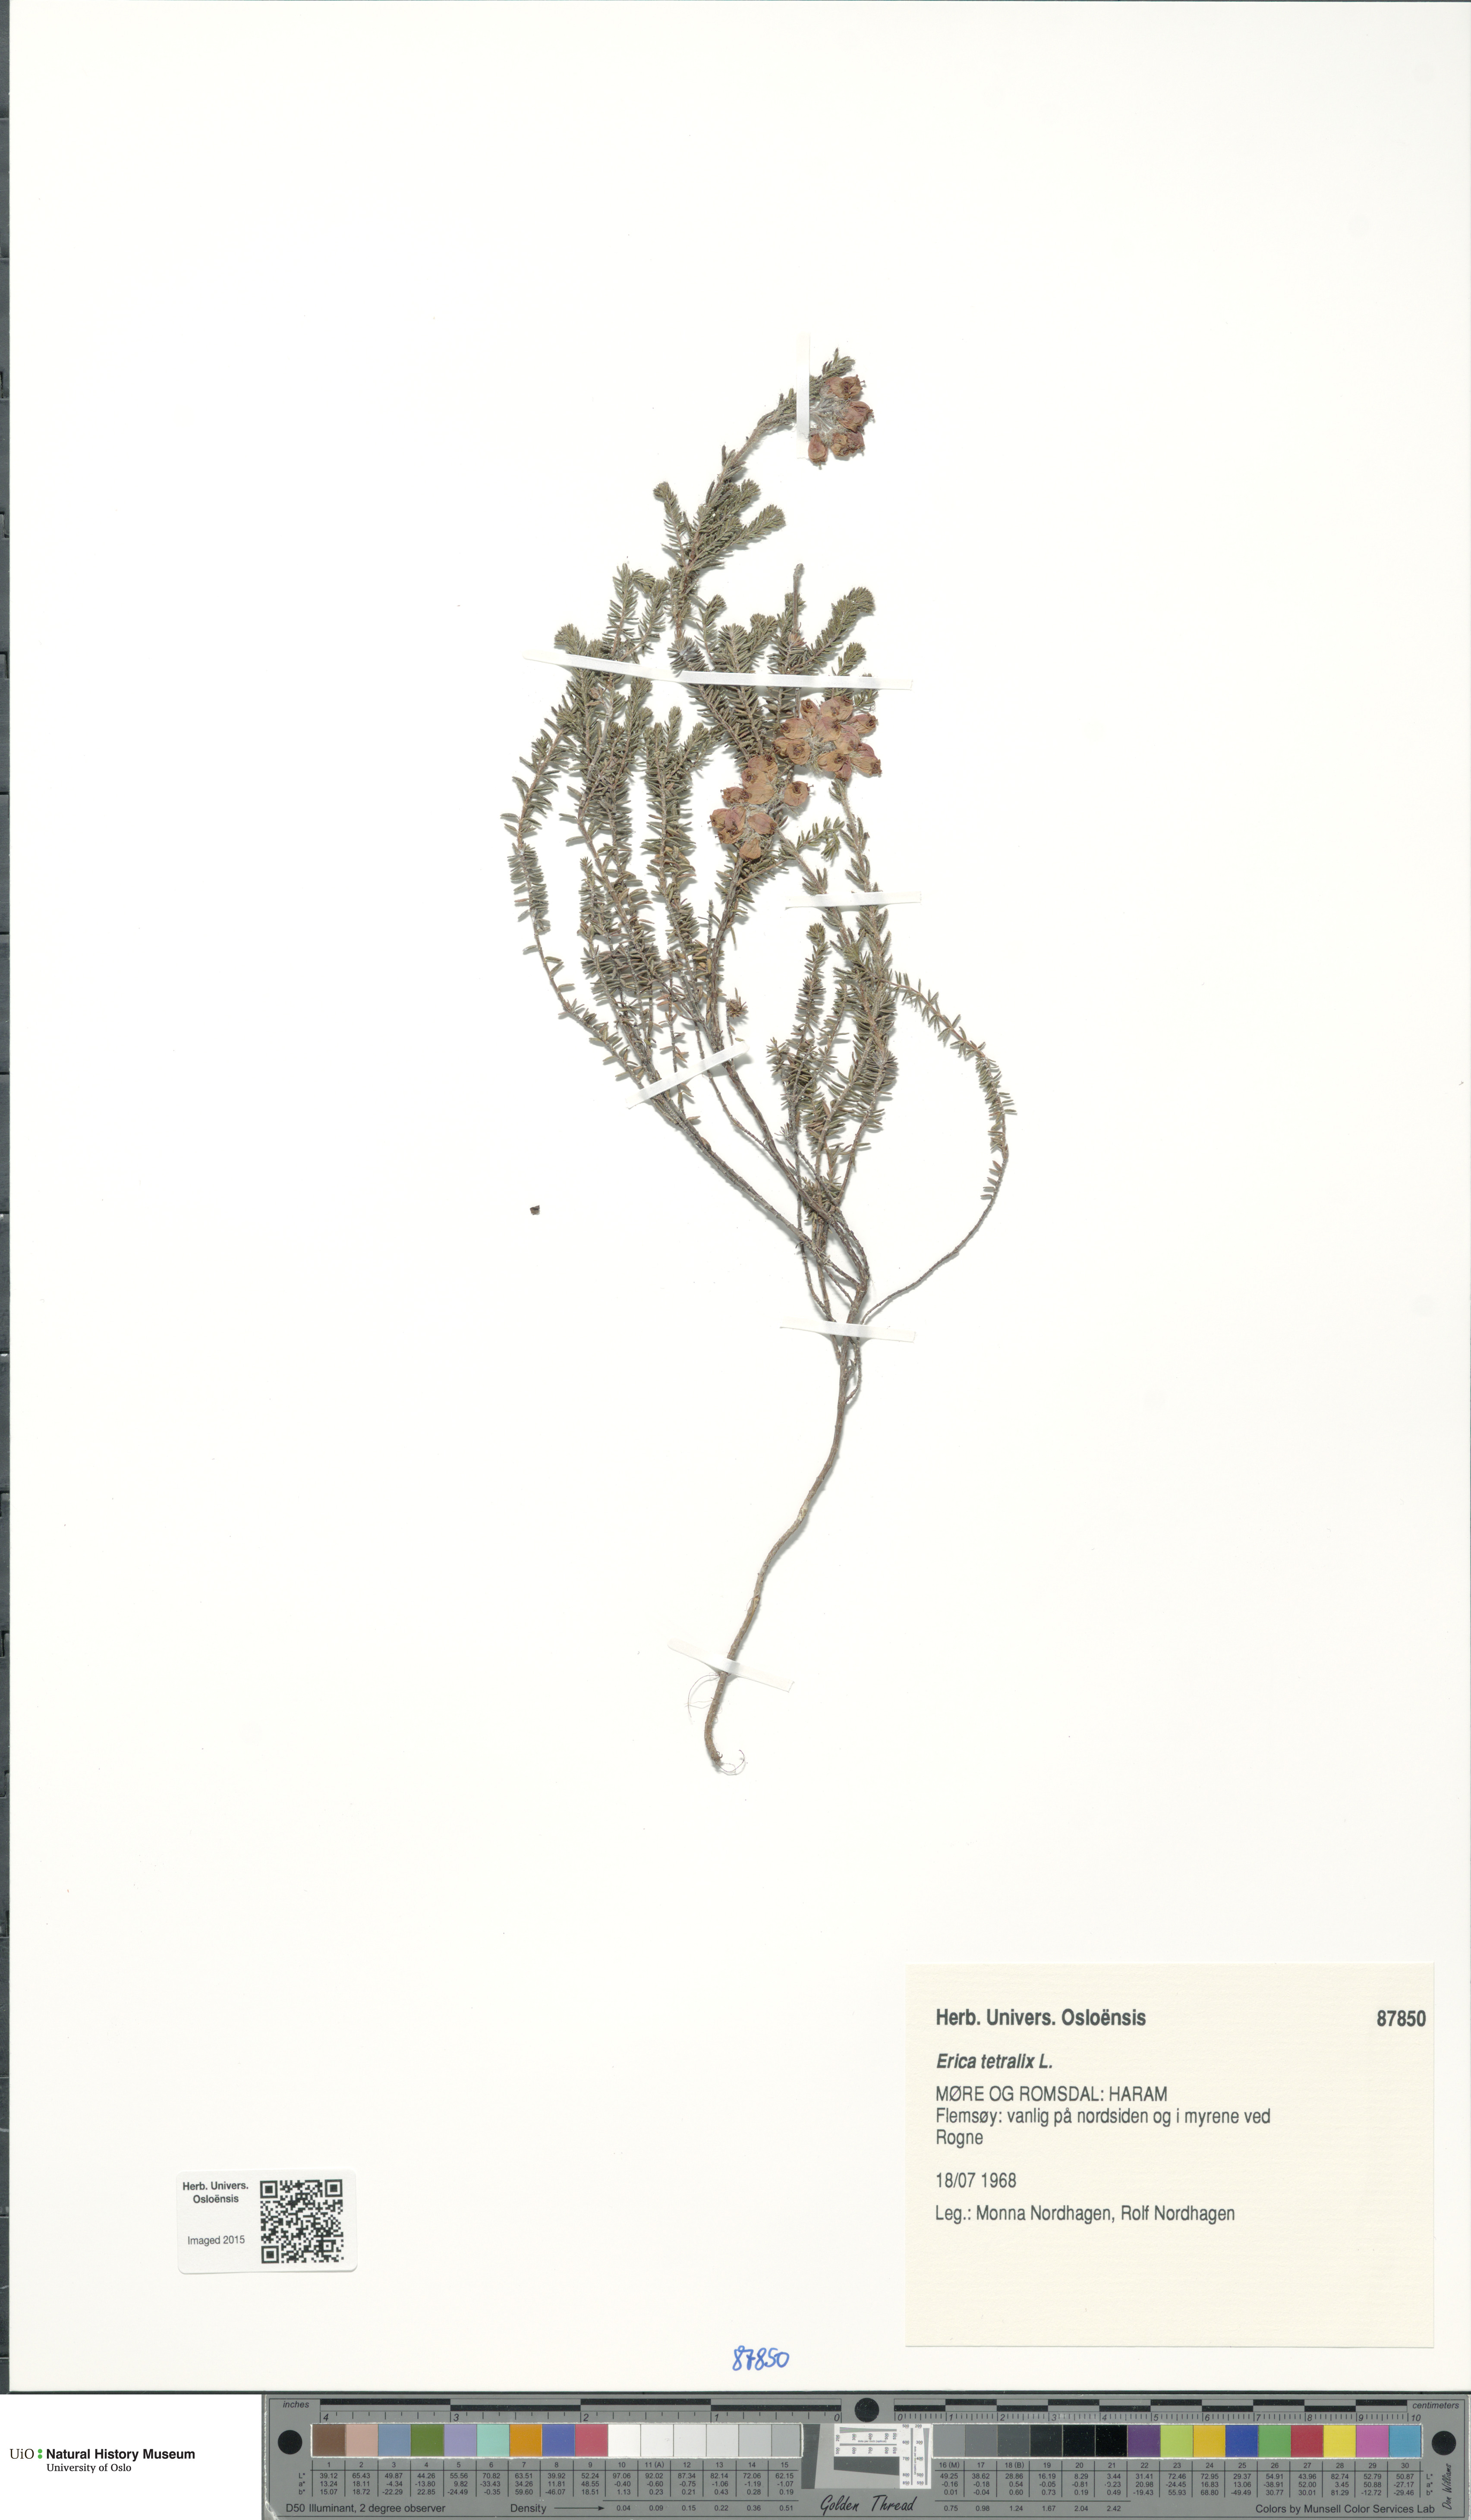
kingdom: Plantae
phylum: Tracheophyta
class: Magnoliopsida
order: Ericales
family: Ericaceae
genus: Erica
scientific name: Erica tetralix
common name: Cross-leaved heath
